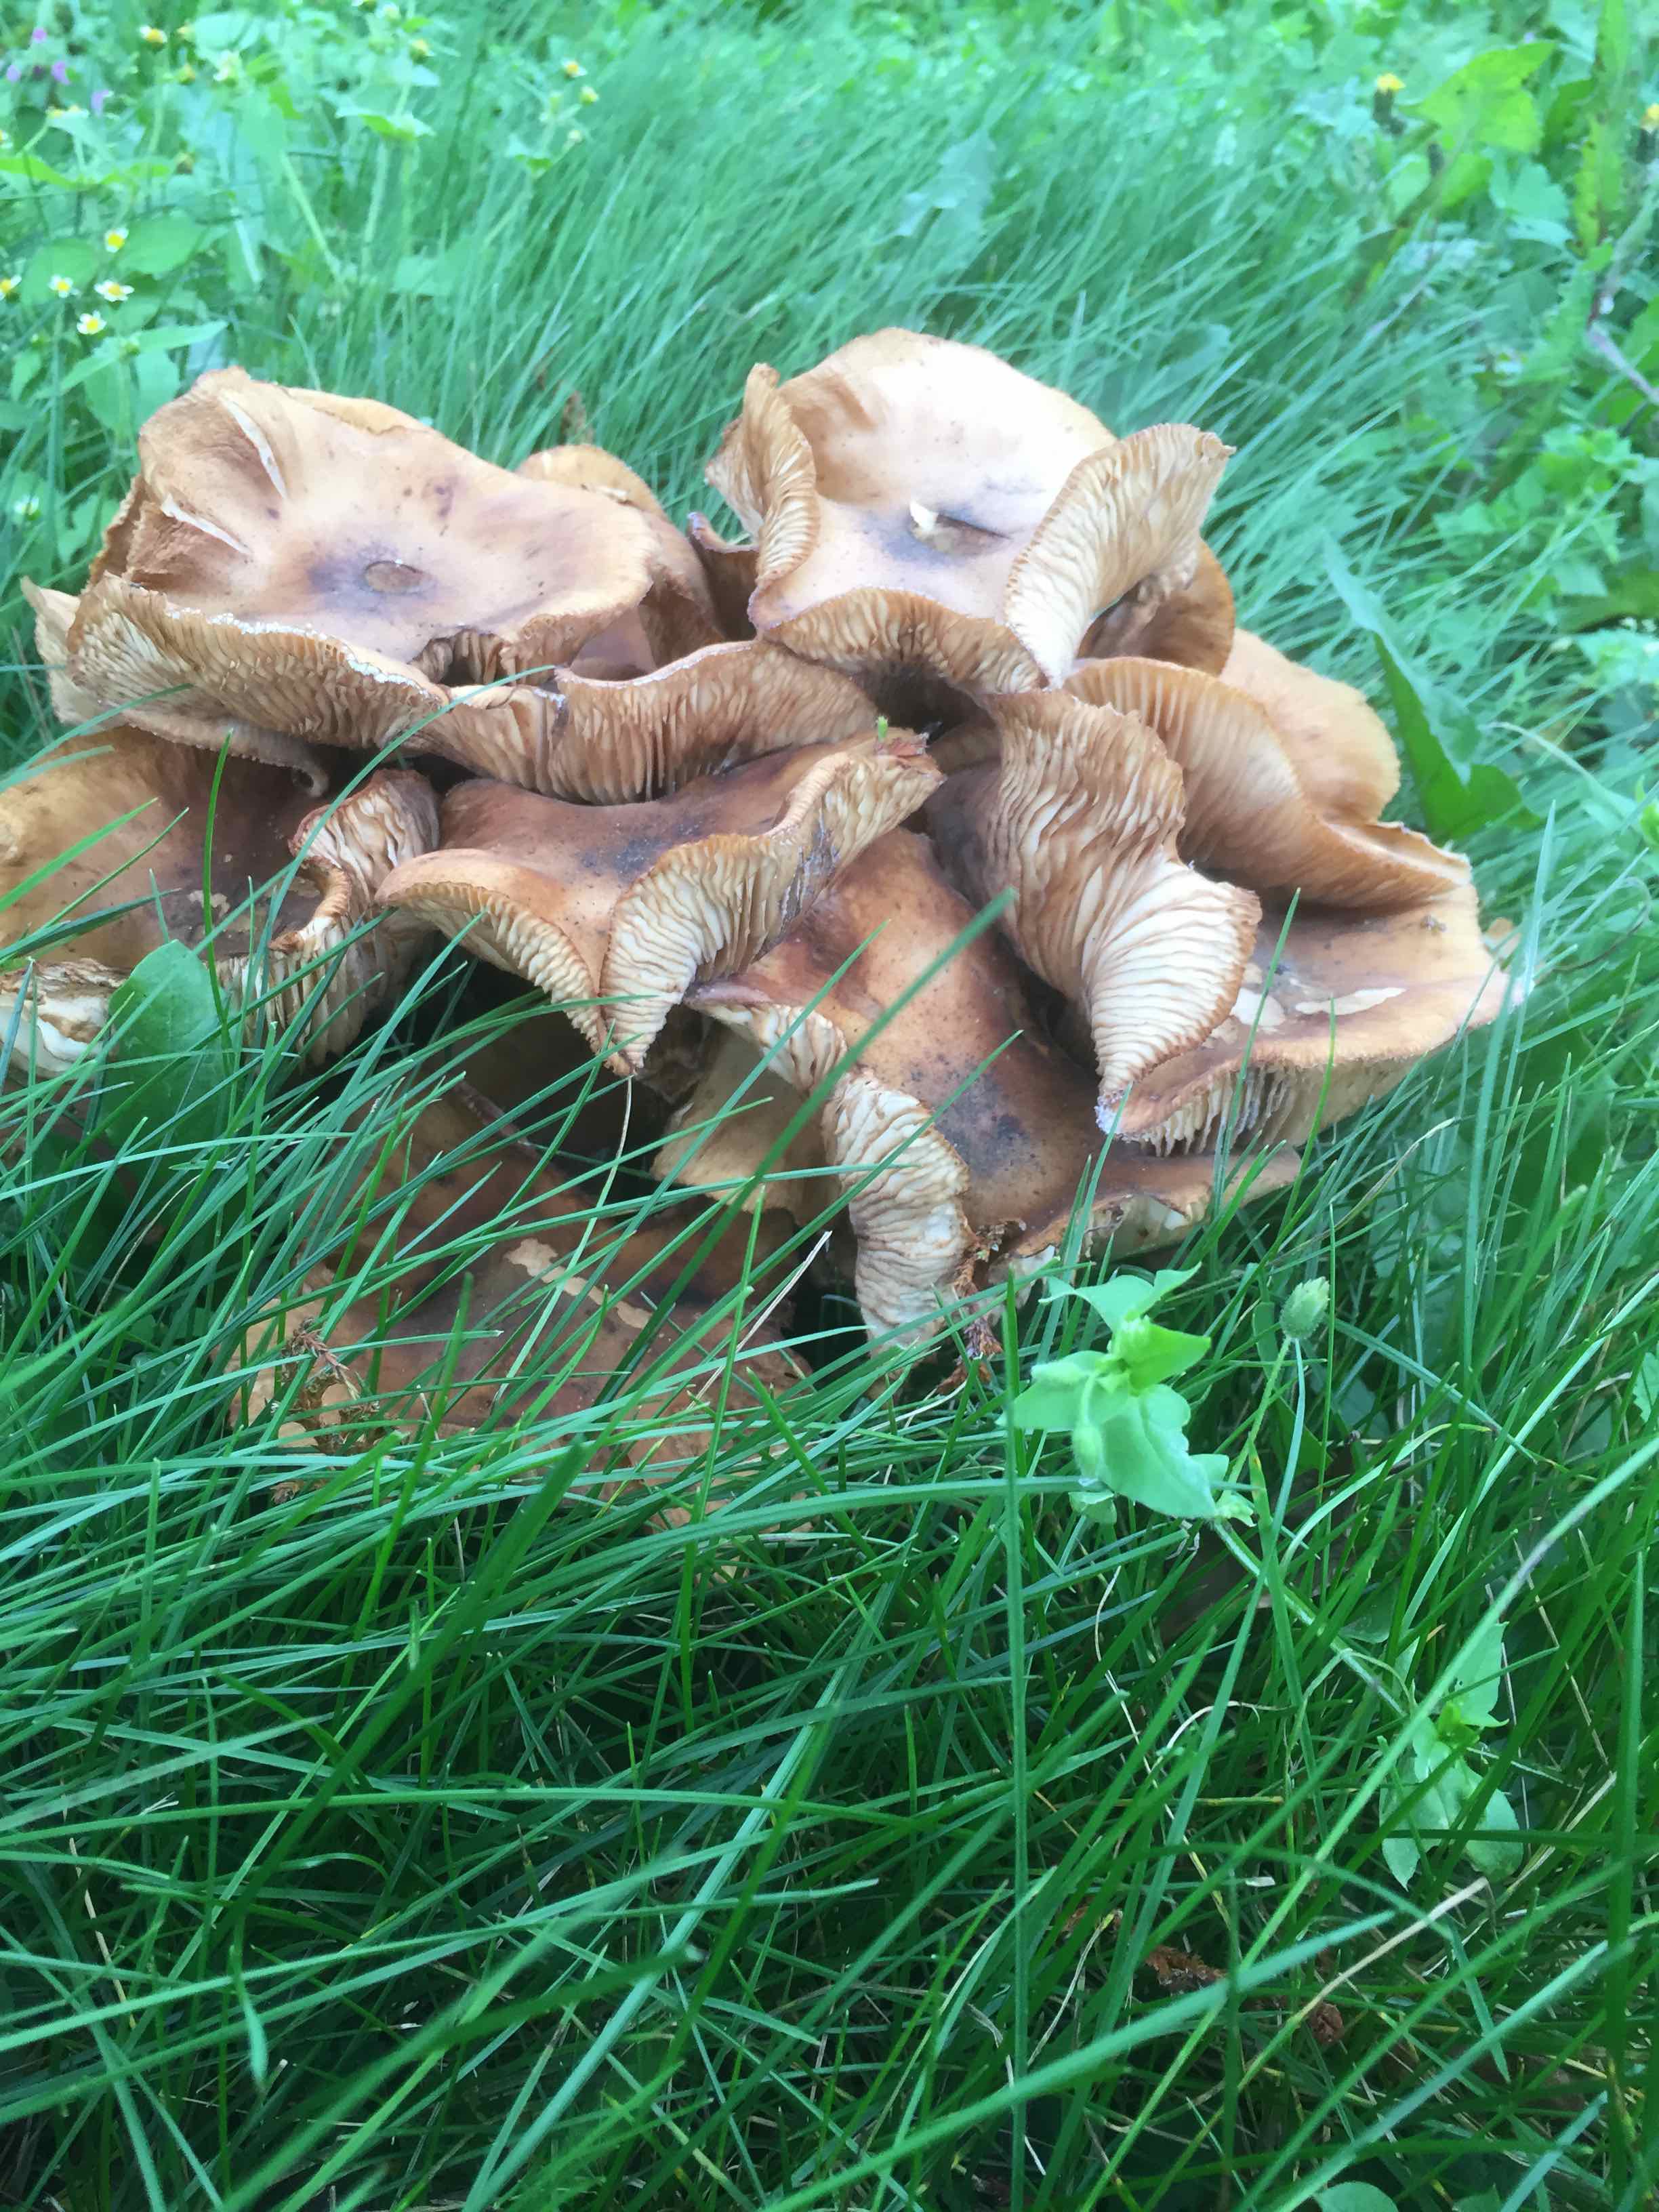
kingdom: Fungi
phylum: Basidiomycota
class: Agaricomycetes
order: Agaricales
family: Physalacriaceae
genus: Armillaria
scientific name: Armillaria mellea
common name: ægte honningsvamp
